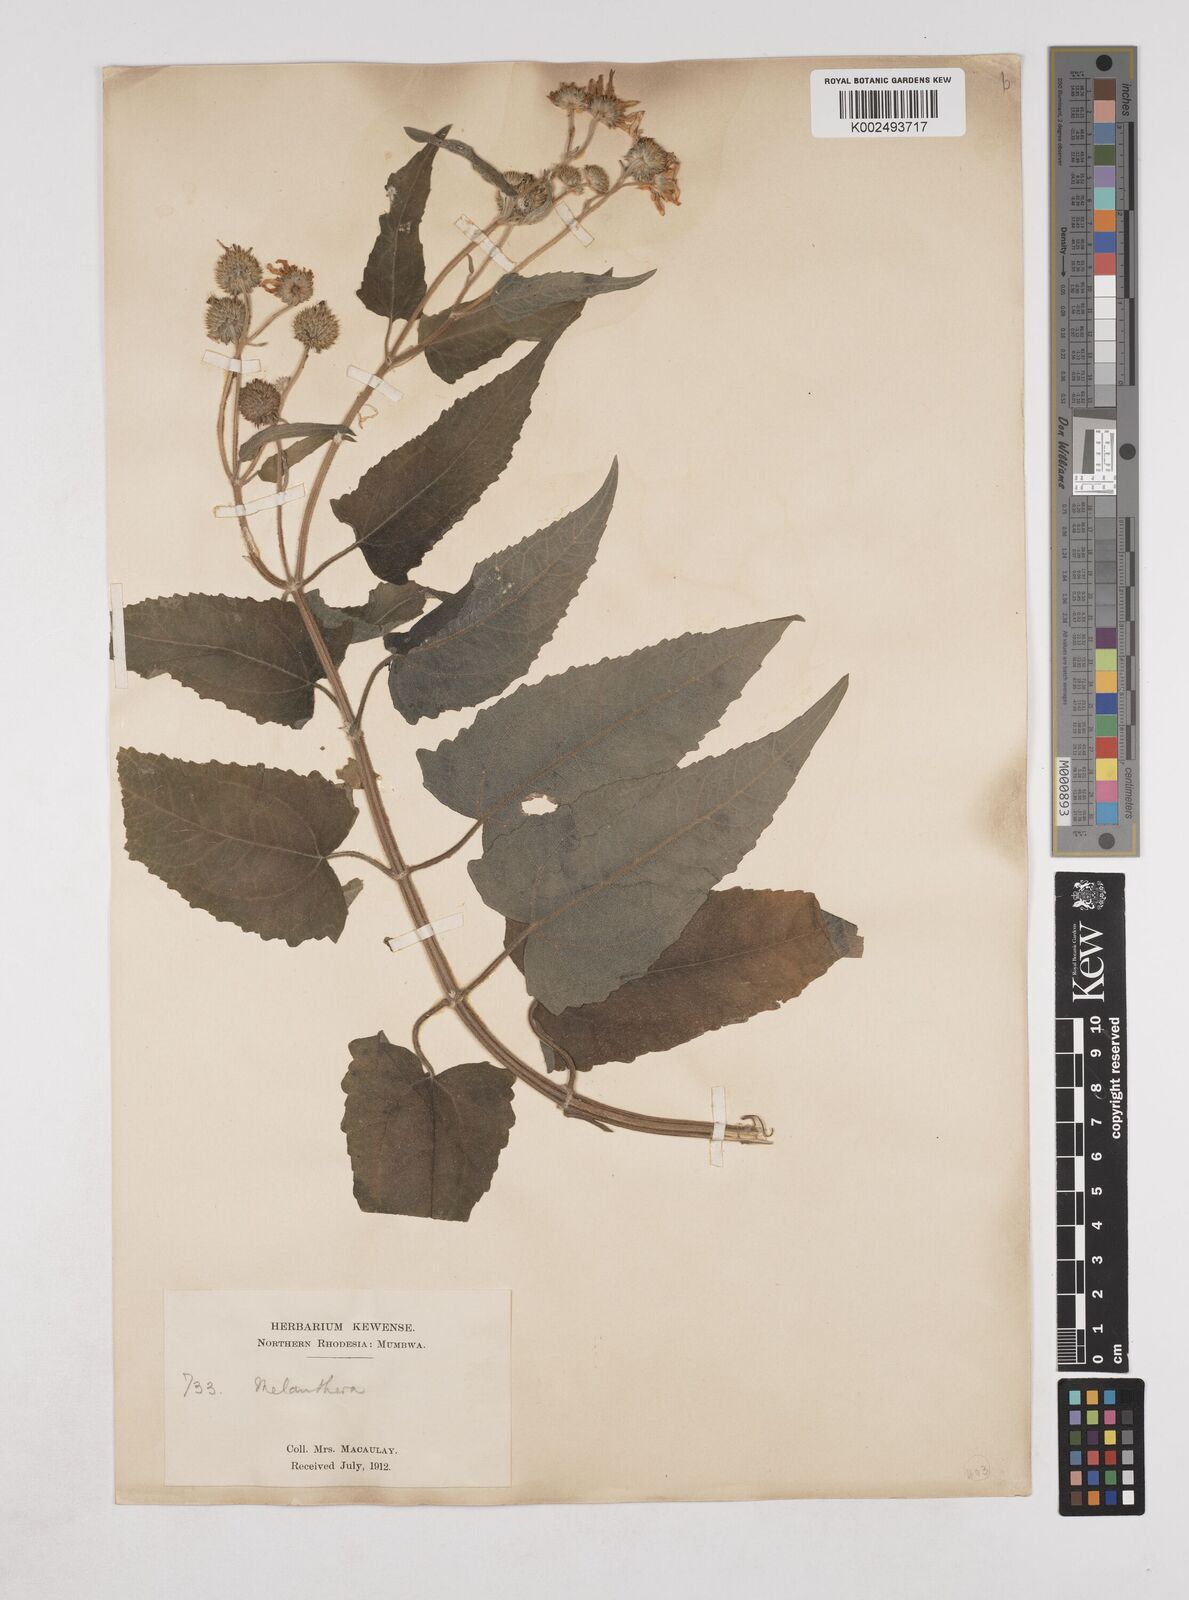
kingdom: Plantae
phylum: Tracheophyta
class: Magnoliopsida
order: Asterales
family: Asteraceae
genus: Lipotriche
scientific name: Lipotriche scandens
